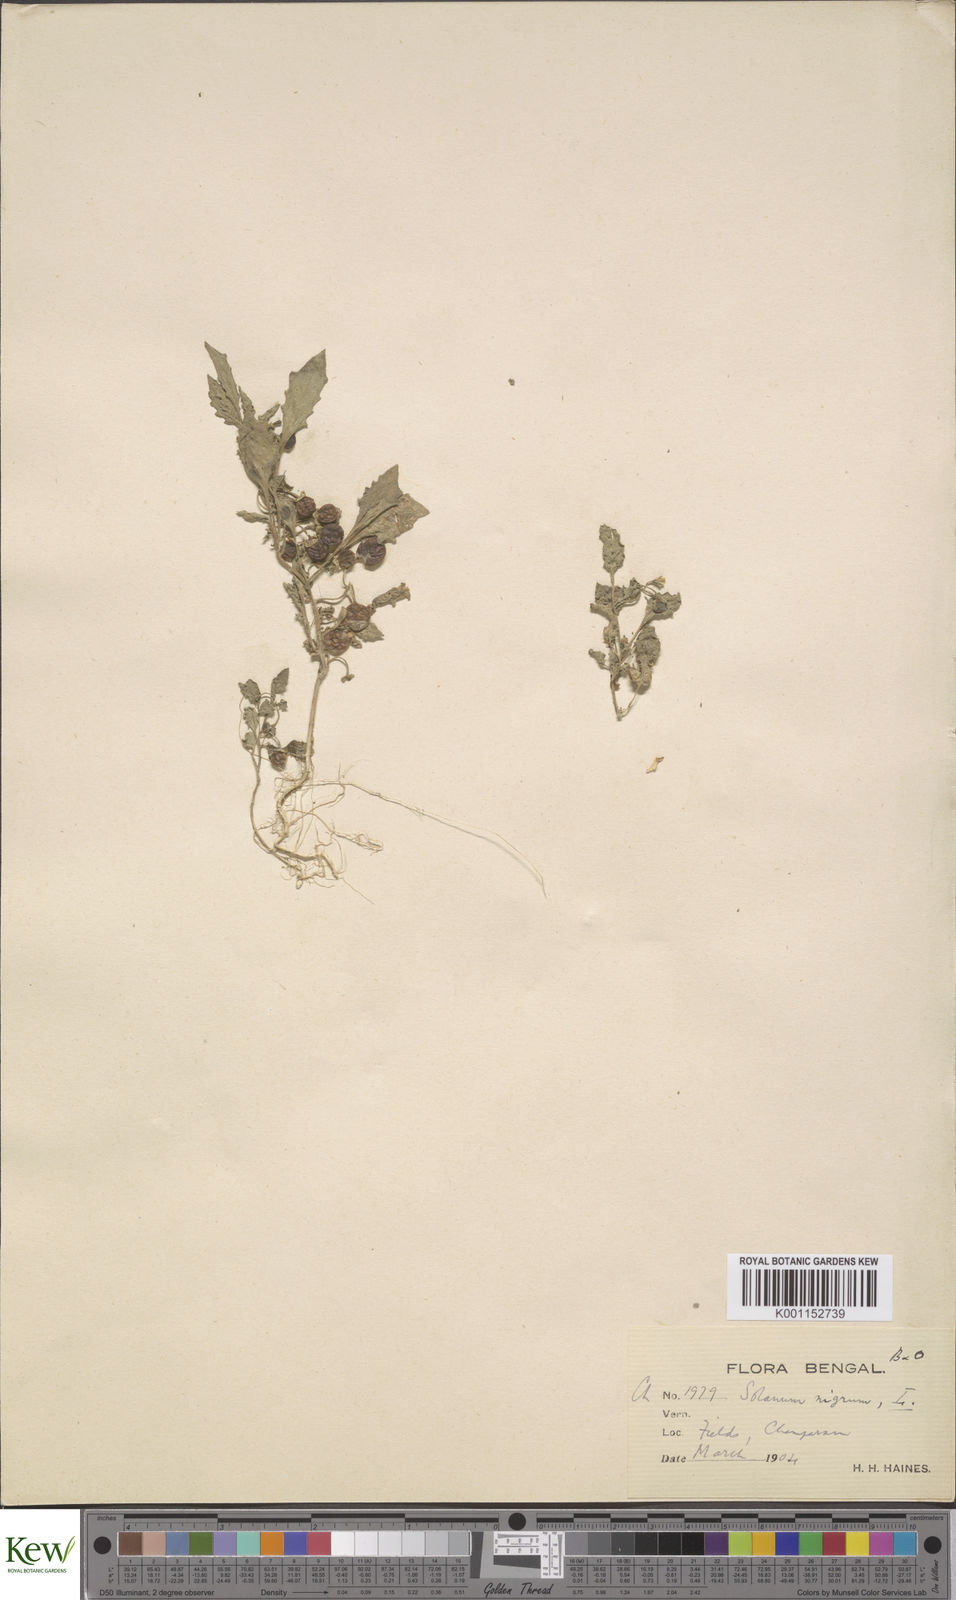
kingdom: Plantae
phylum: Tracheophyta
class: Magnoliopsida
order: Solanales
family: Solanaceae
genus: Solanum
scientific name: Solanum nigrum
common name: Black nightshade
